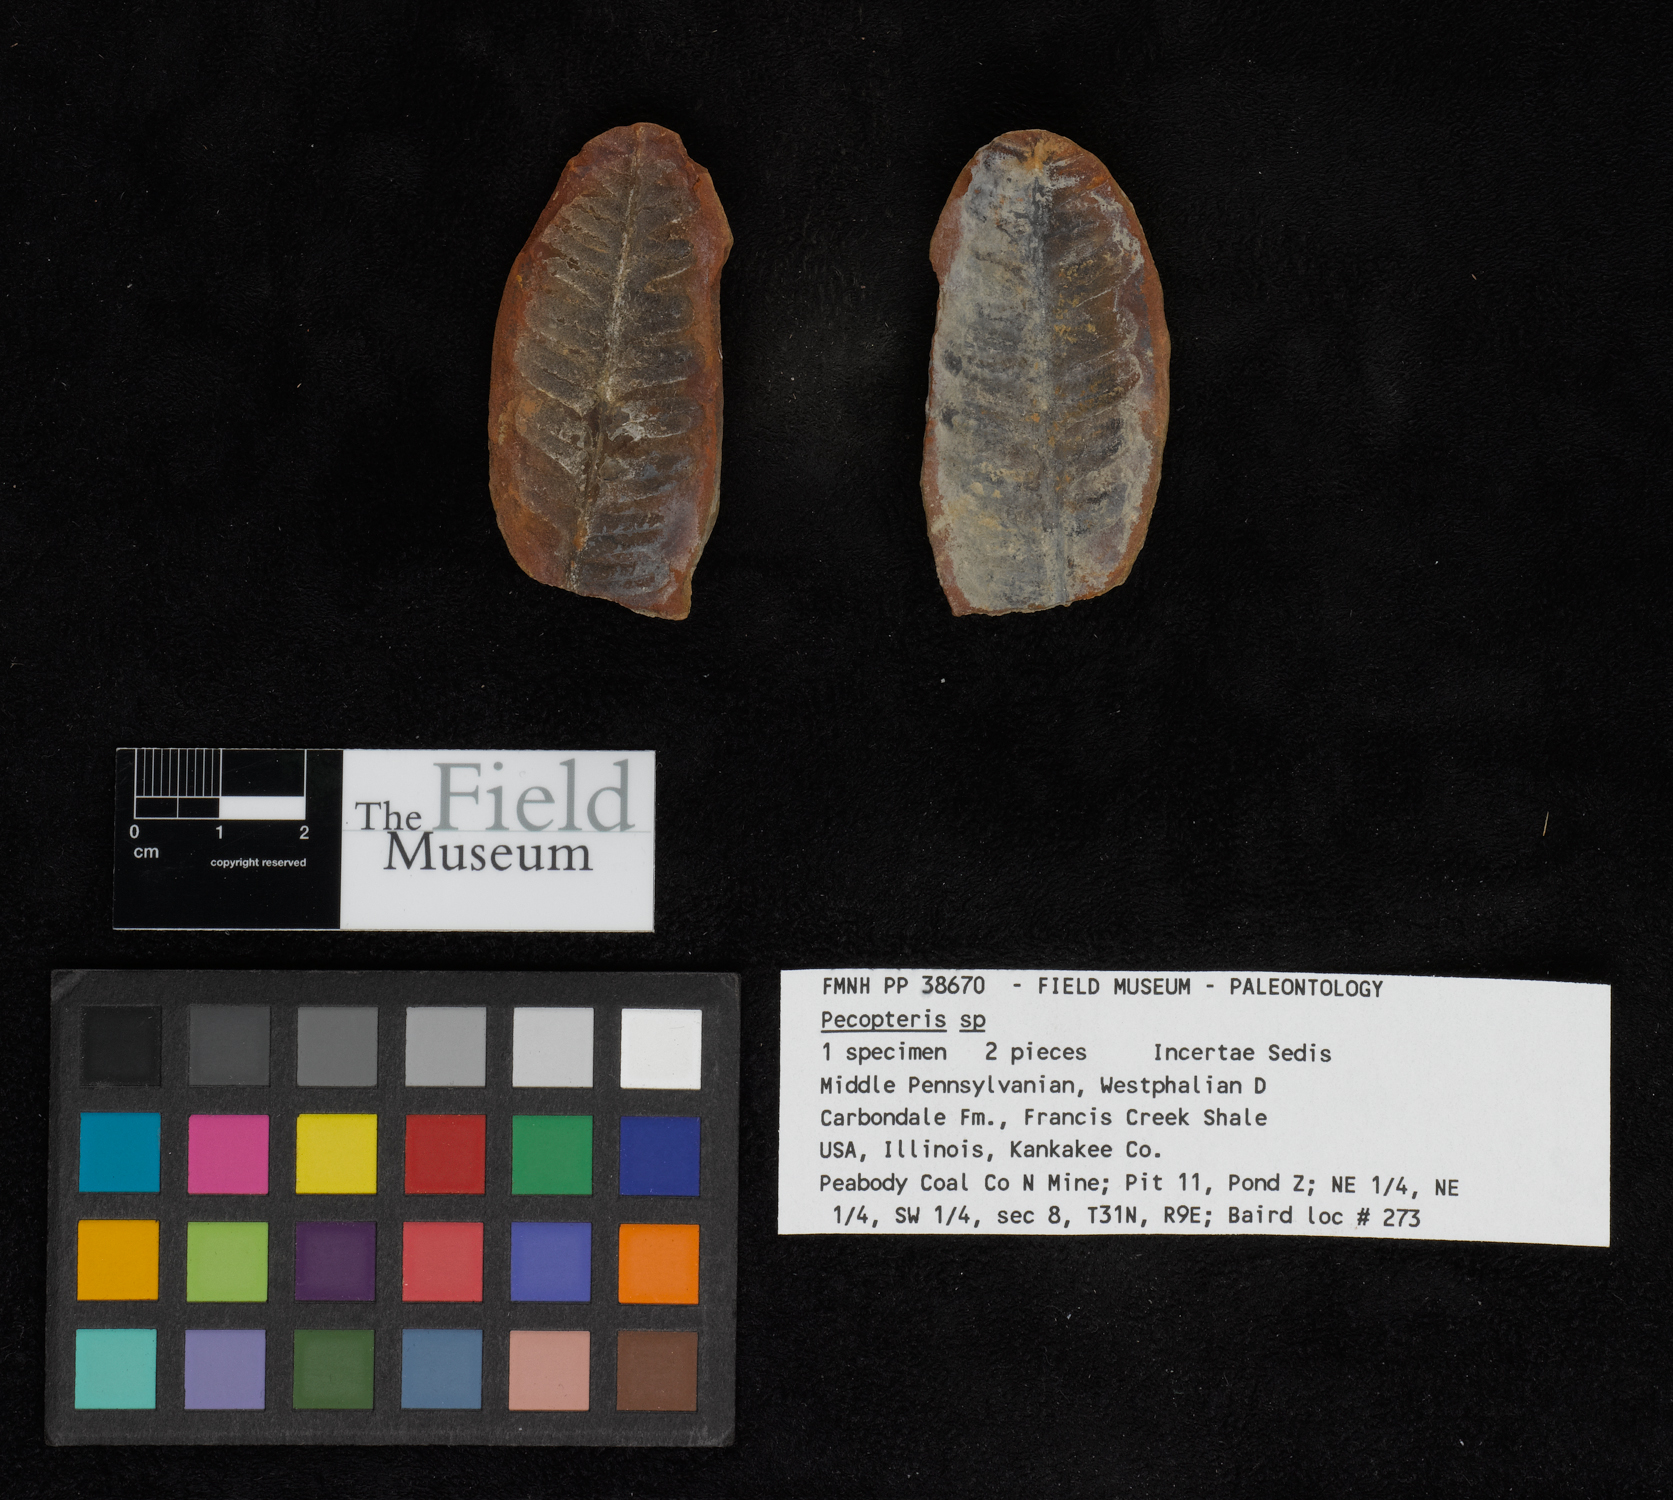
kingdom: Plantae
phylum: Tracheophyta
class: Polypodiopsida
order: Marattiales
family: Asterothecaceae
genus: Pecopteris
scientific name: Pecopteris
